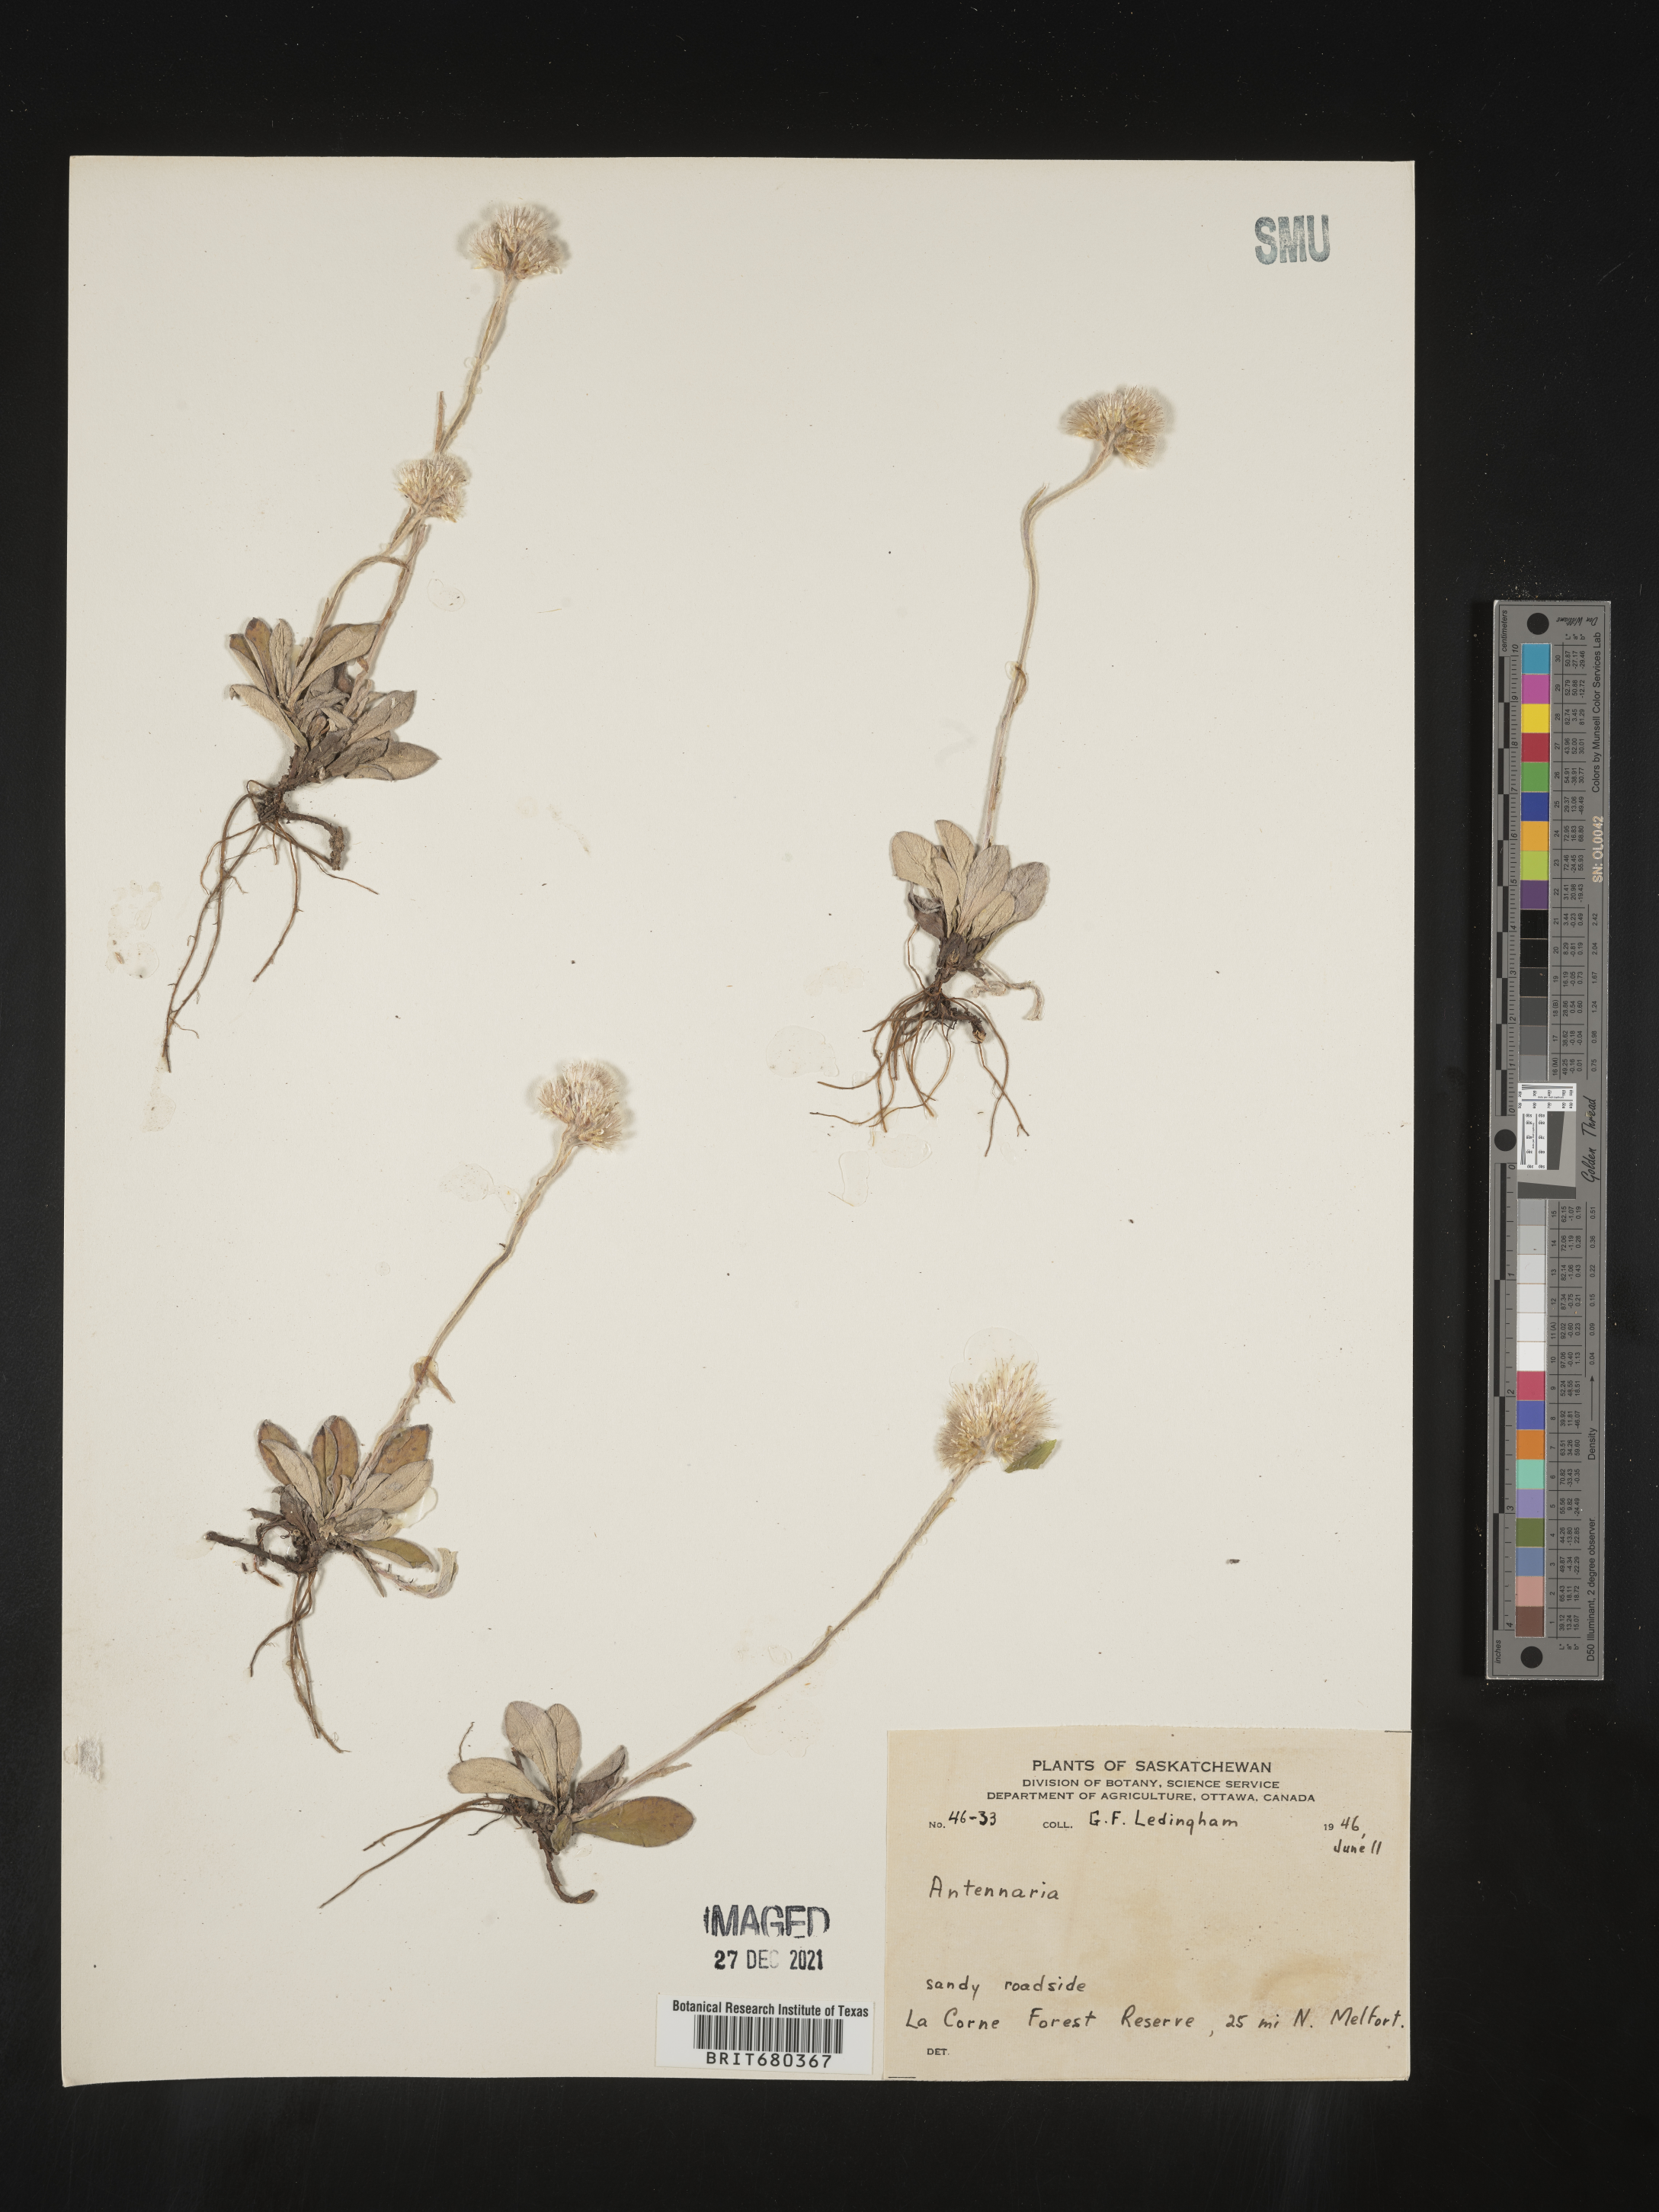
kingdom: Plantae
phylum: Tracheophyta
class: Magnoliopsida
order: Asterales
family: Asteraceae
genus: Antennaria
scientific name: Antennaria
